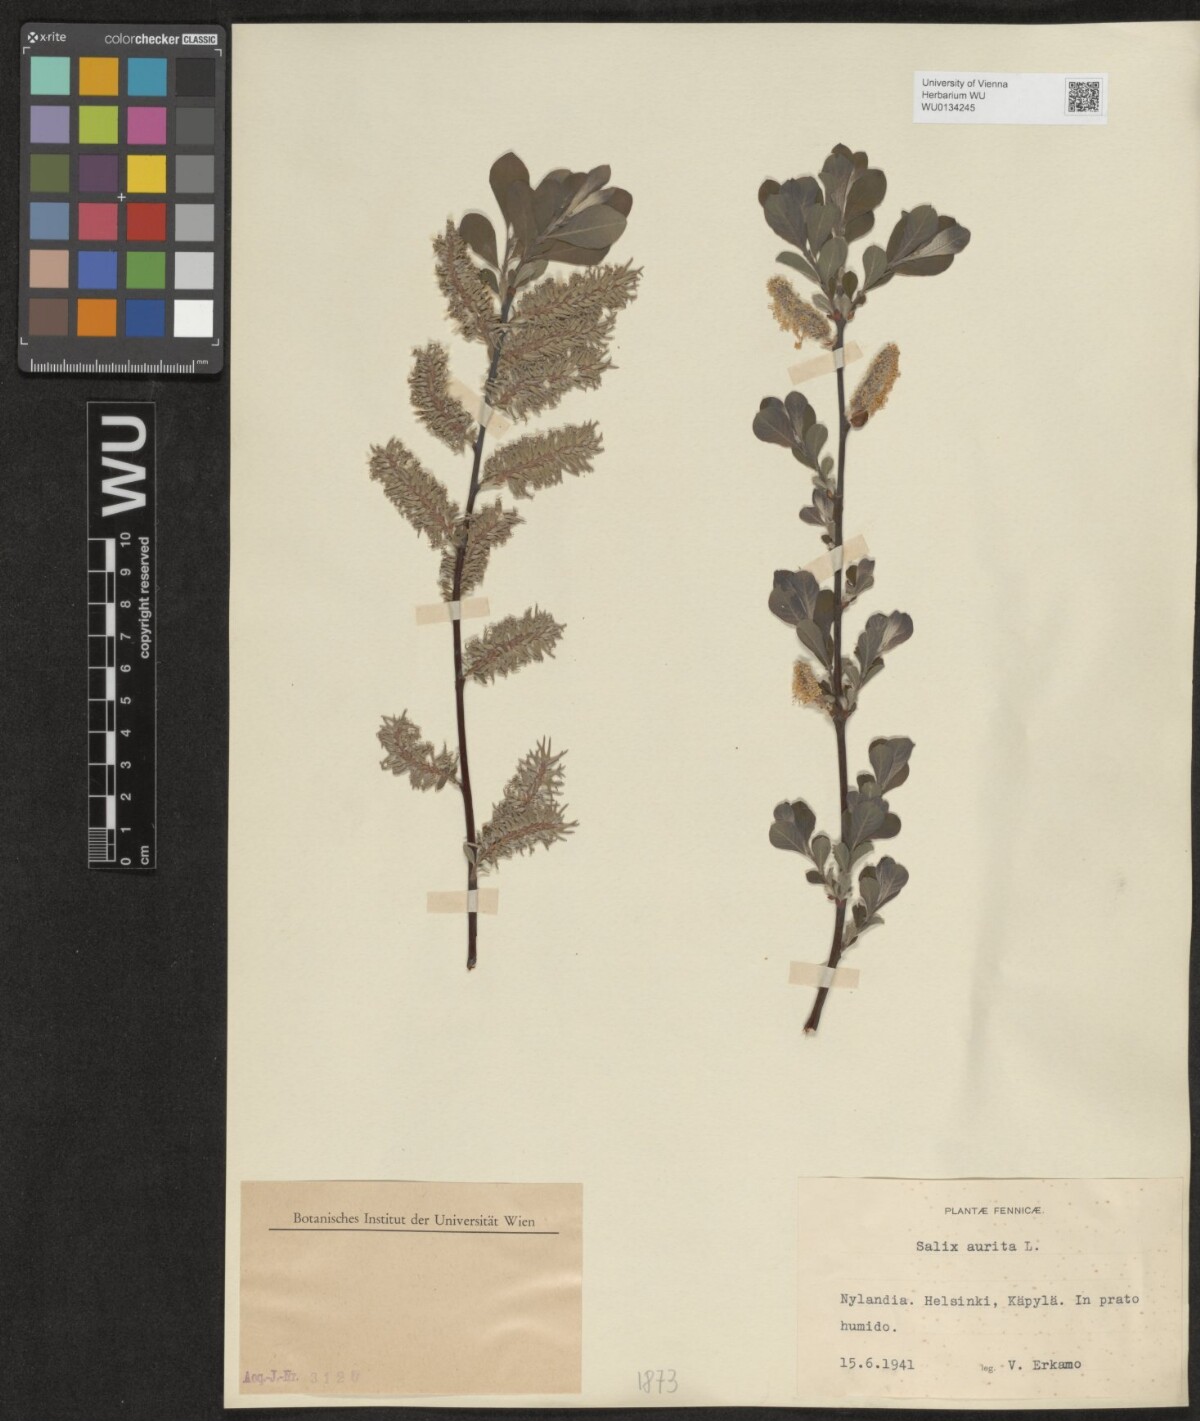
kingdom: Plantae
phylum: Tracheophyta
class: Magnoliopsida
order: Malpighiales
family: Salicaceae
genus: Salix
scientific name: Salix aurita
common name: Eared willow
